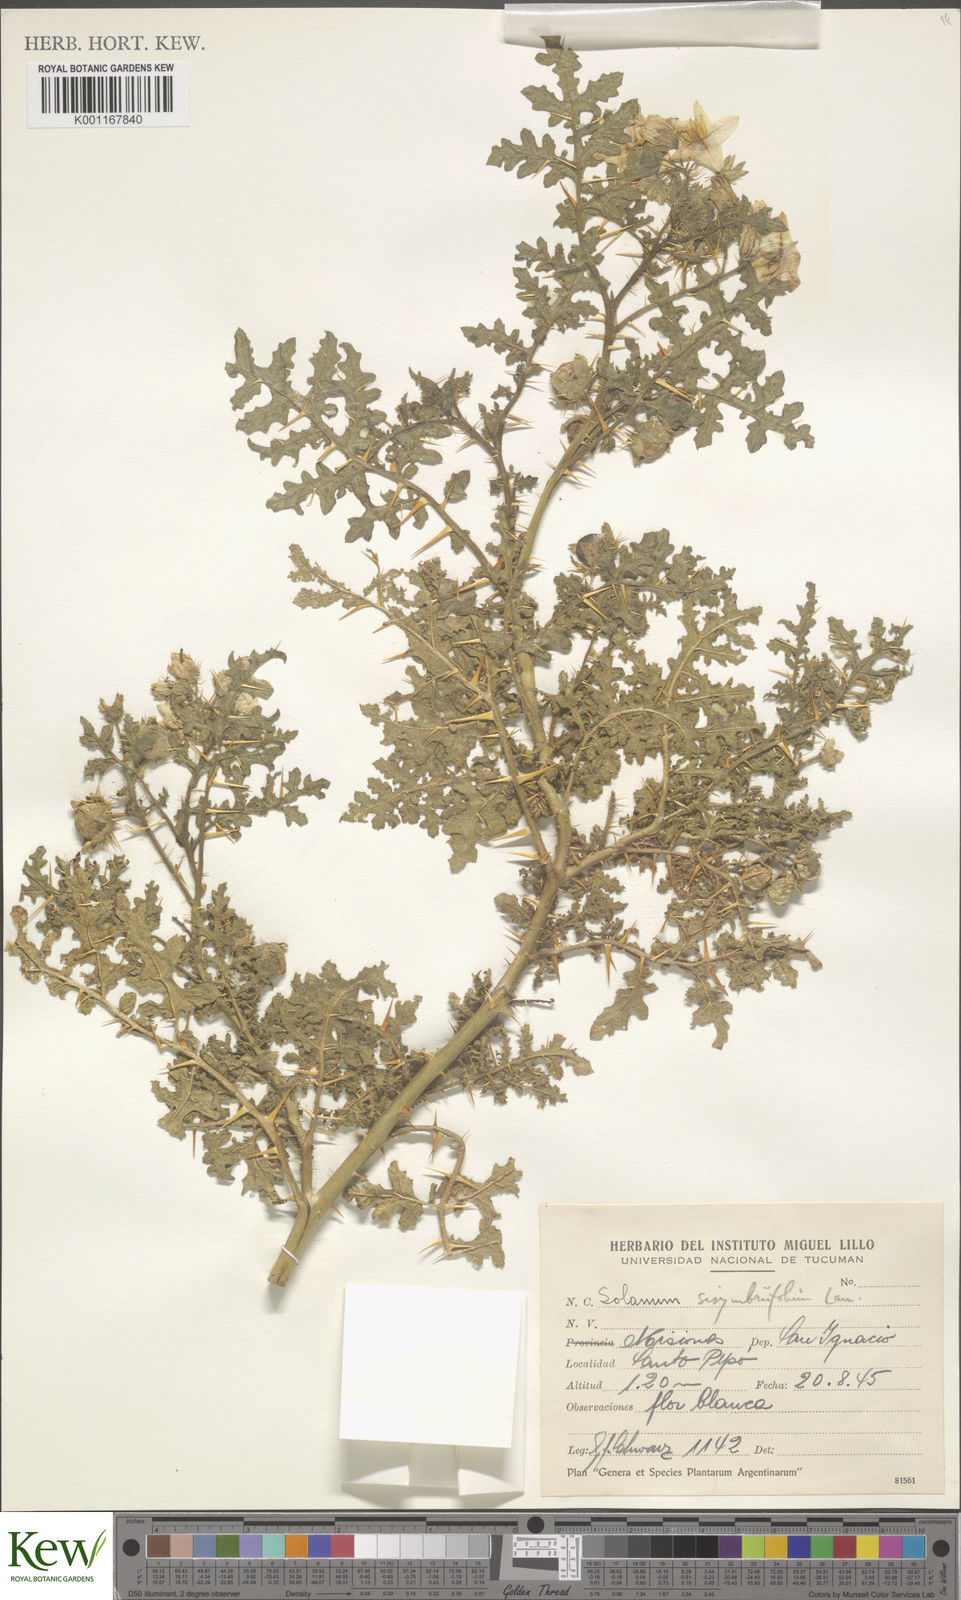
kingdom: Plantae
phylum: Tracheophyta
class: Magnoliopsida
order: Solanales
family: Solanaceae
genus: Solanum
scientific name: Solanum sisymbriifolium
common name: Red buffalo-bur
